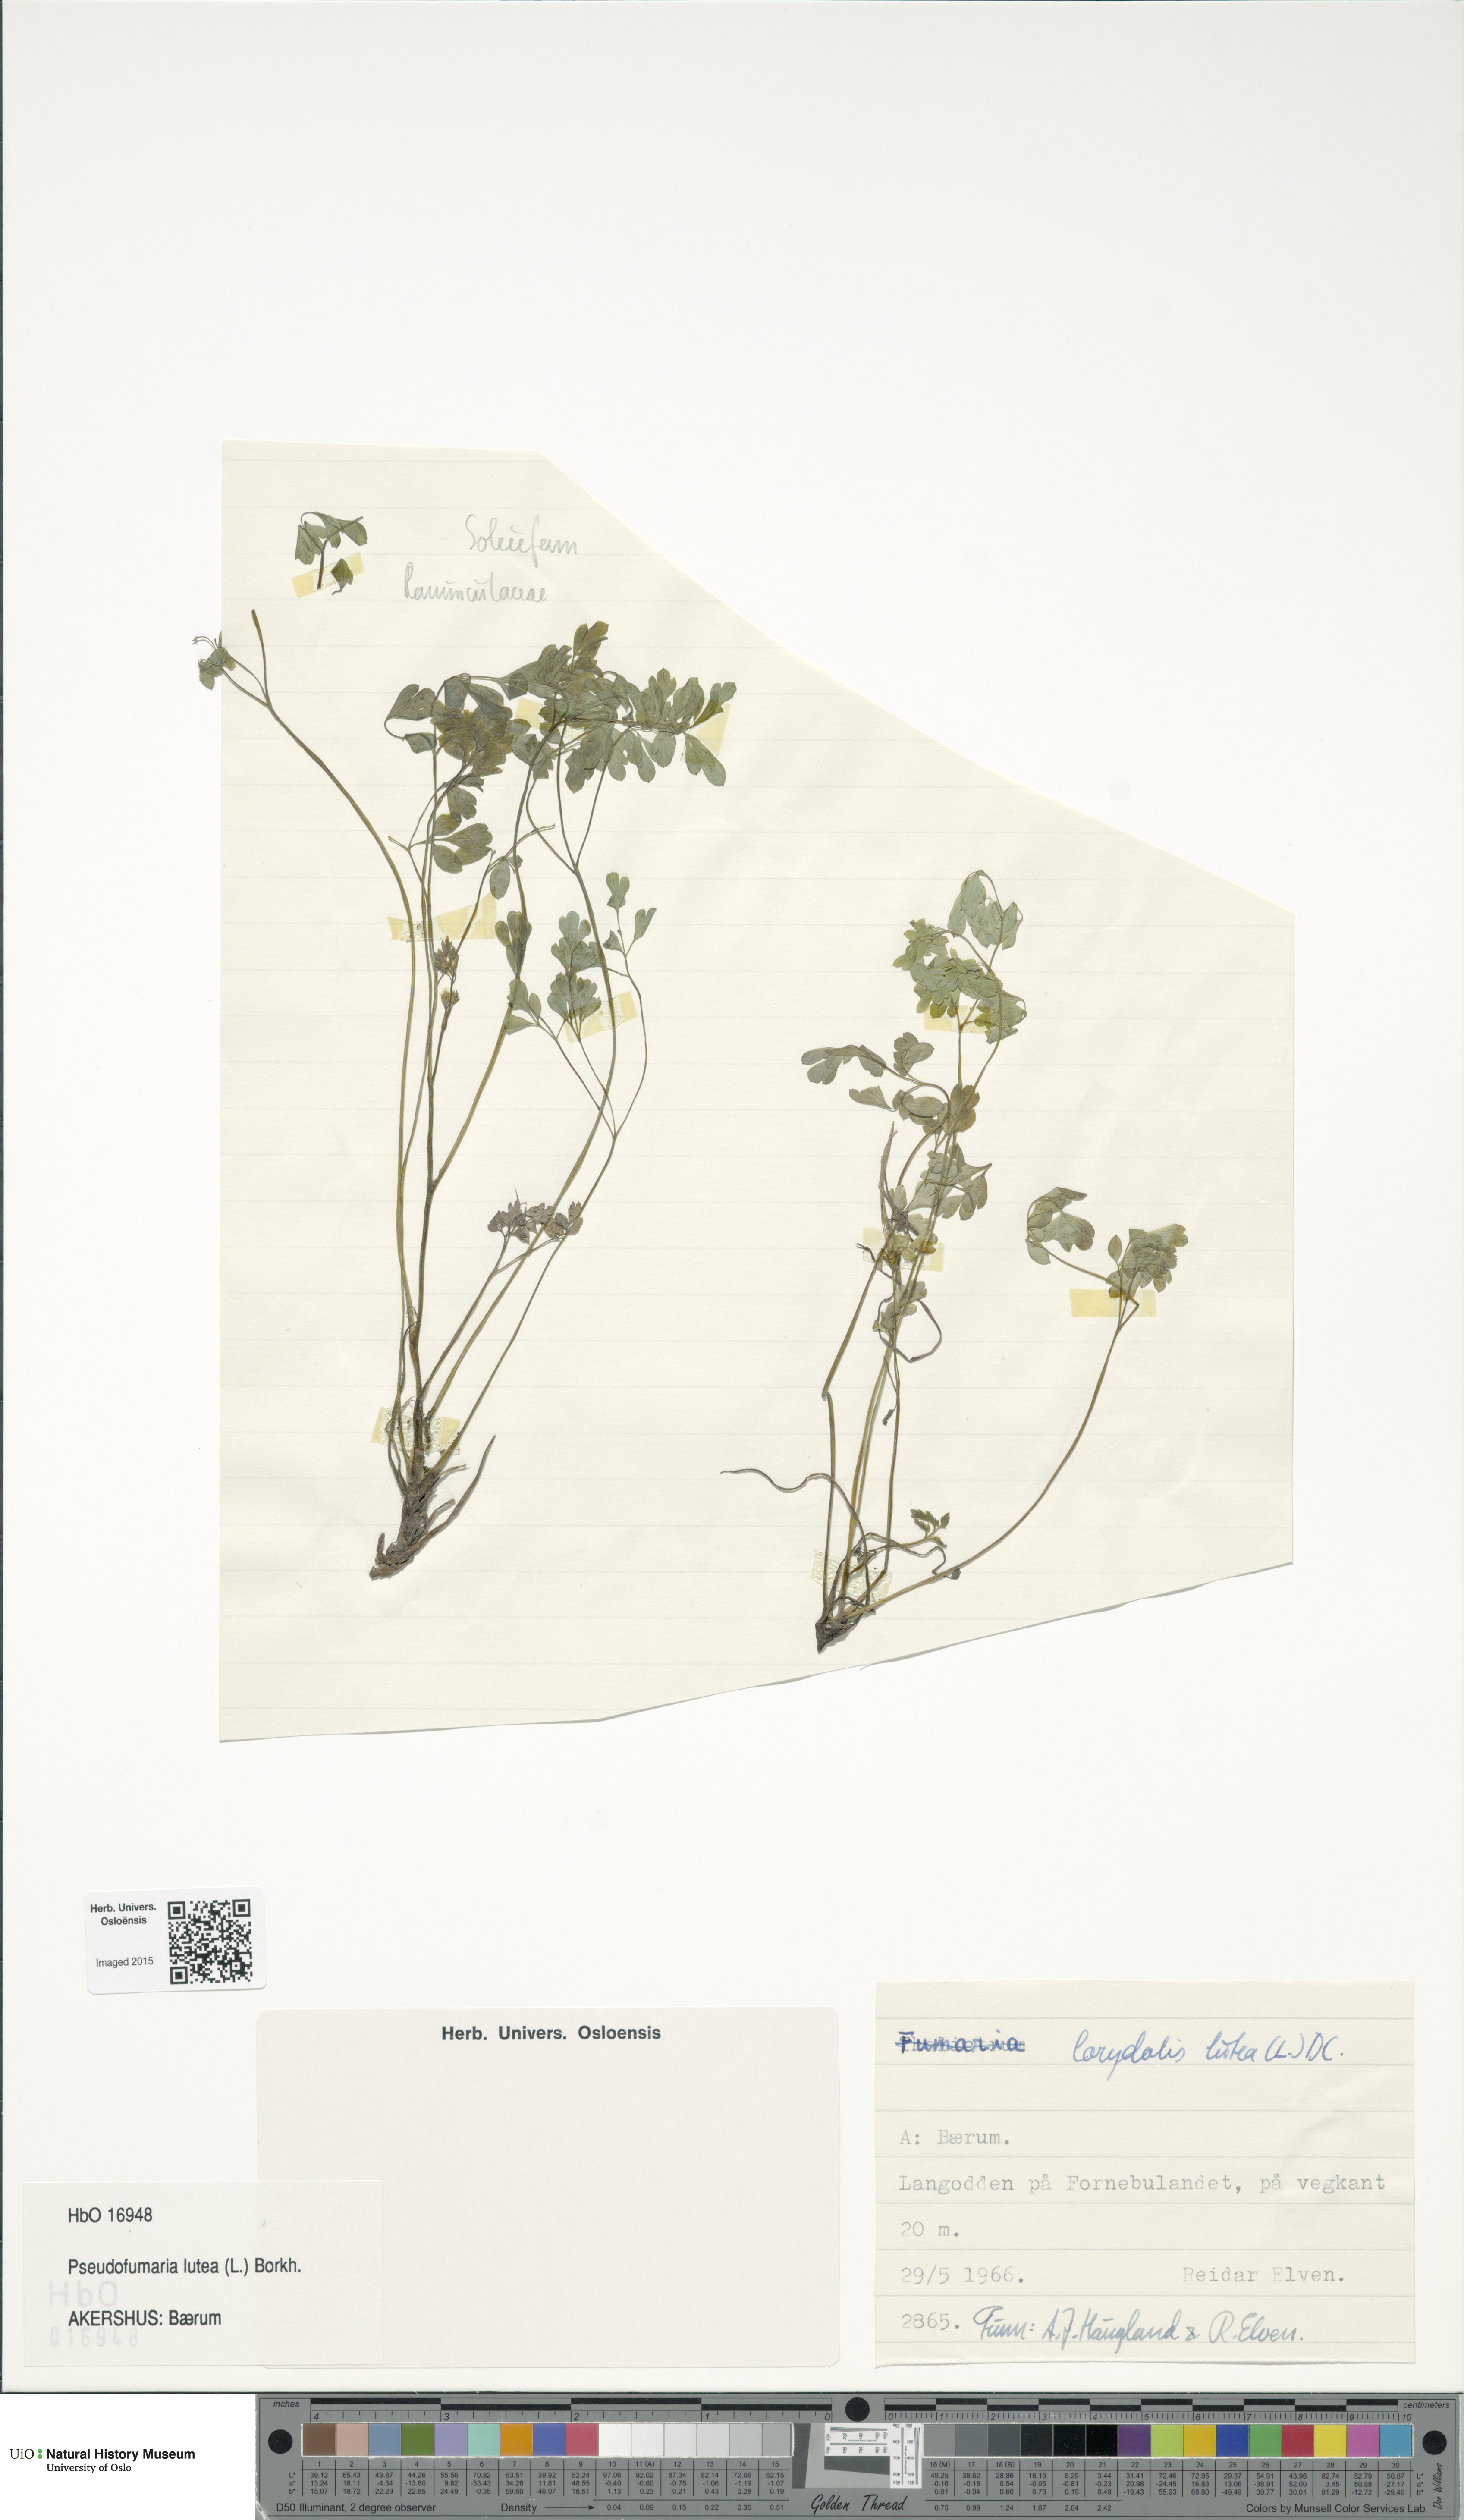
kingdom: Plantae
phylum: Tracheophyta
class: Magnoliopsida
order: Ranunculales
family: Papaveraceae
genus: Pseudofumaria
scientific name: Pseudofumaria lutea
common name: Yellow corydalis
